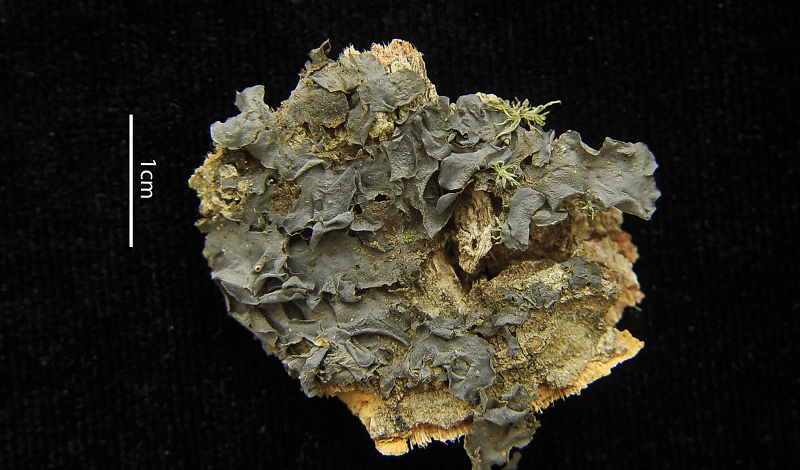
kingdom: Fungi
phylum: Ascomycota
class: Lecanoromycetes
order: Peltigerales
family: Collemataceae
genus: Leptogium
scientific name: Leptogium ulvaceum
